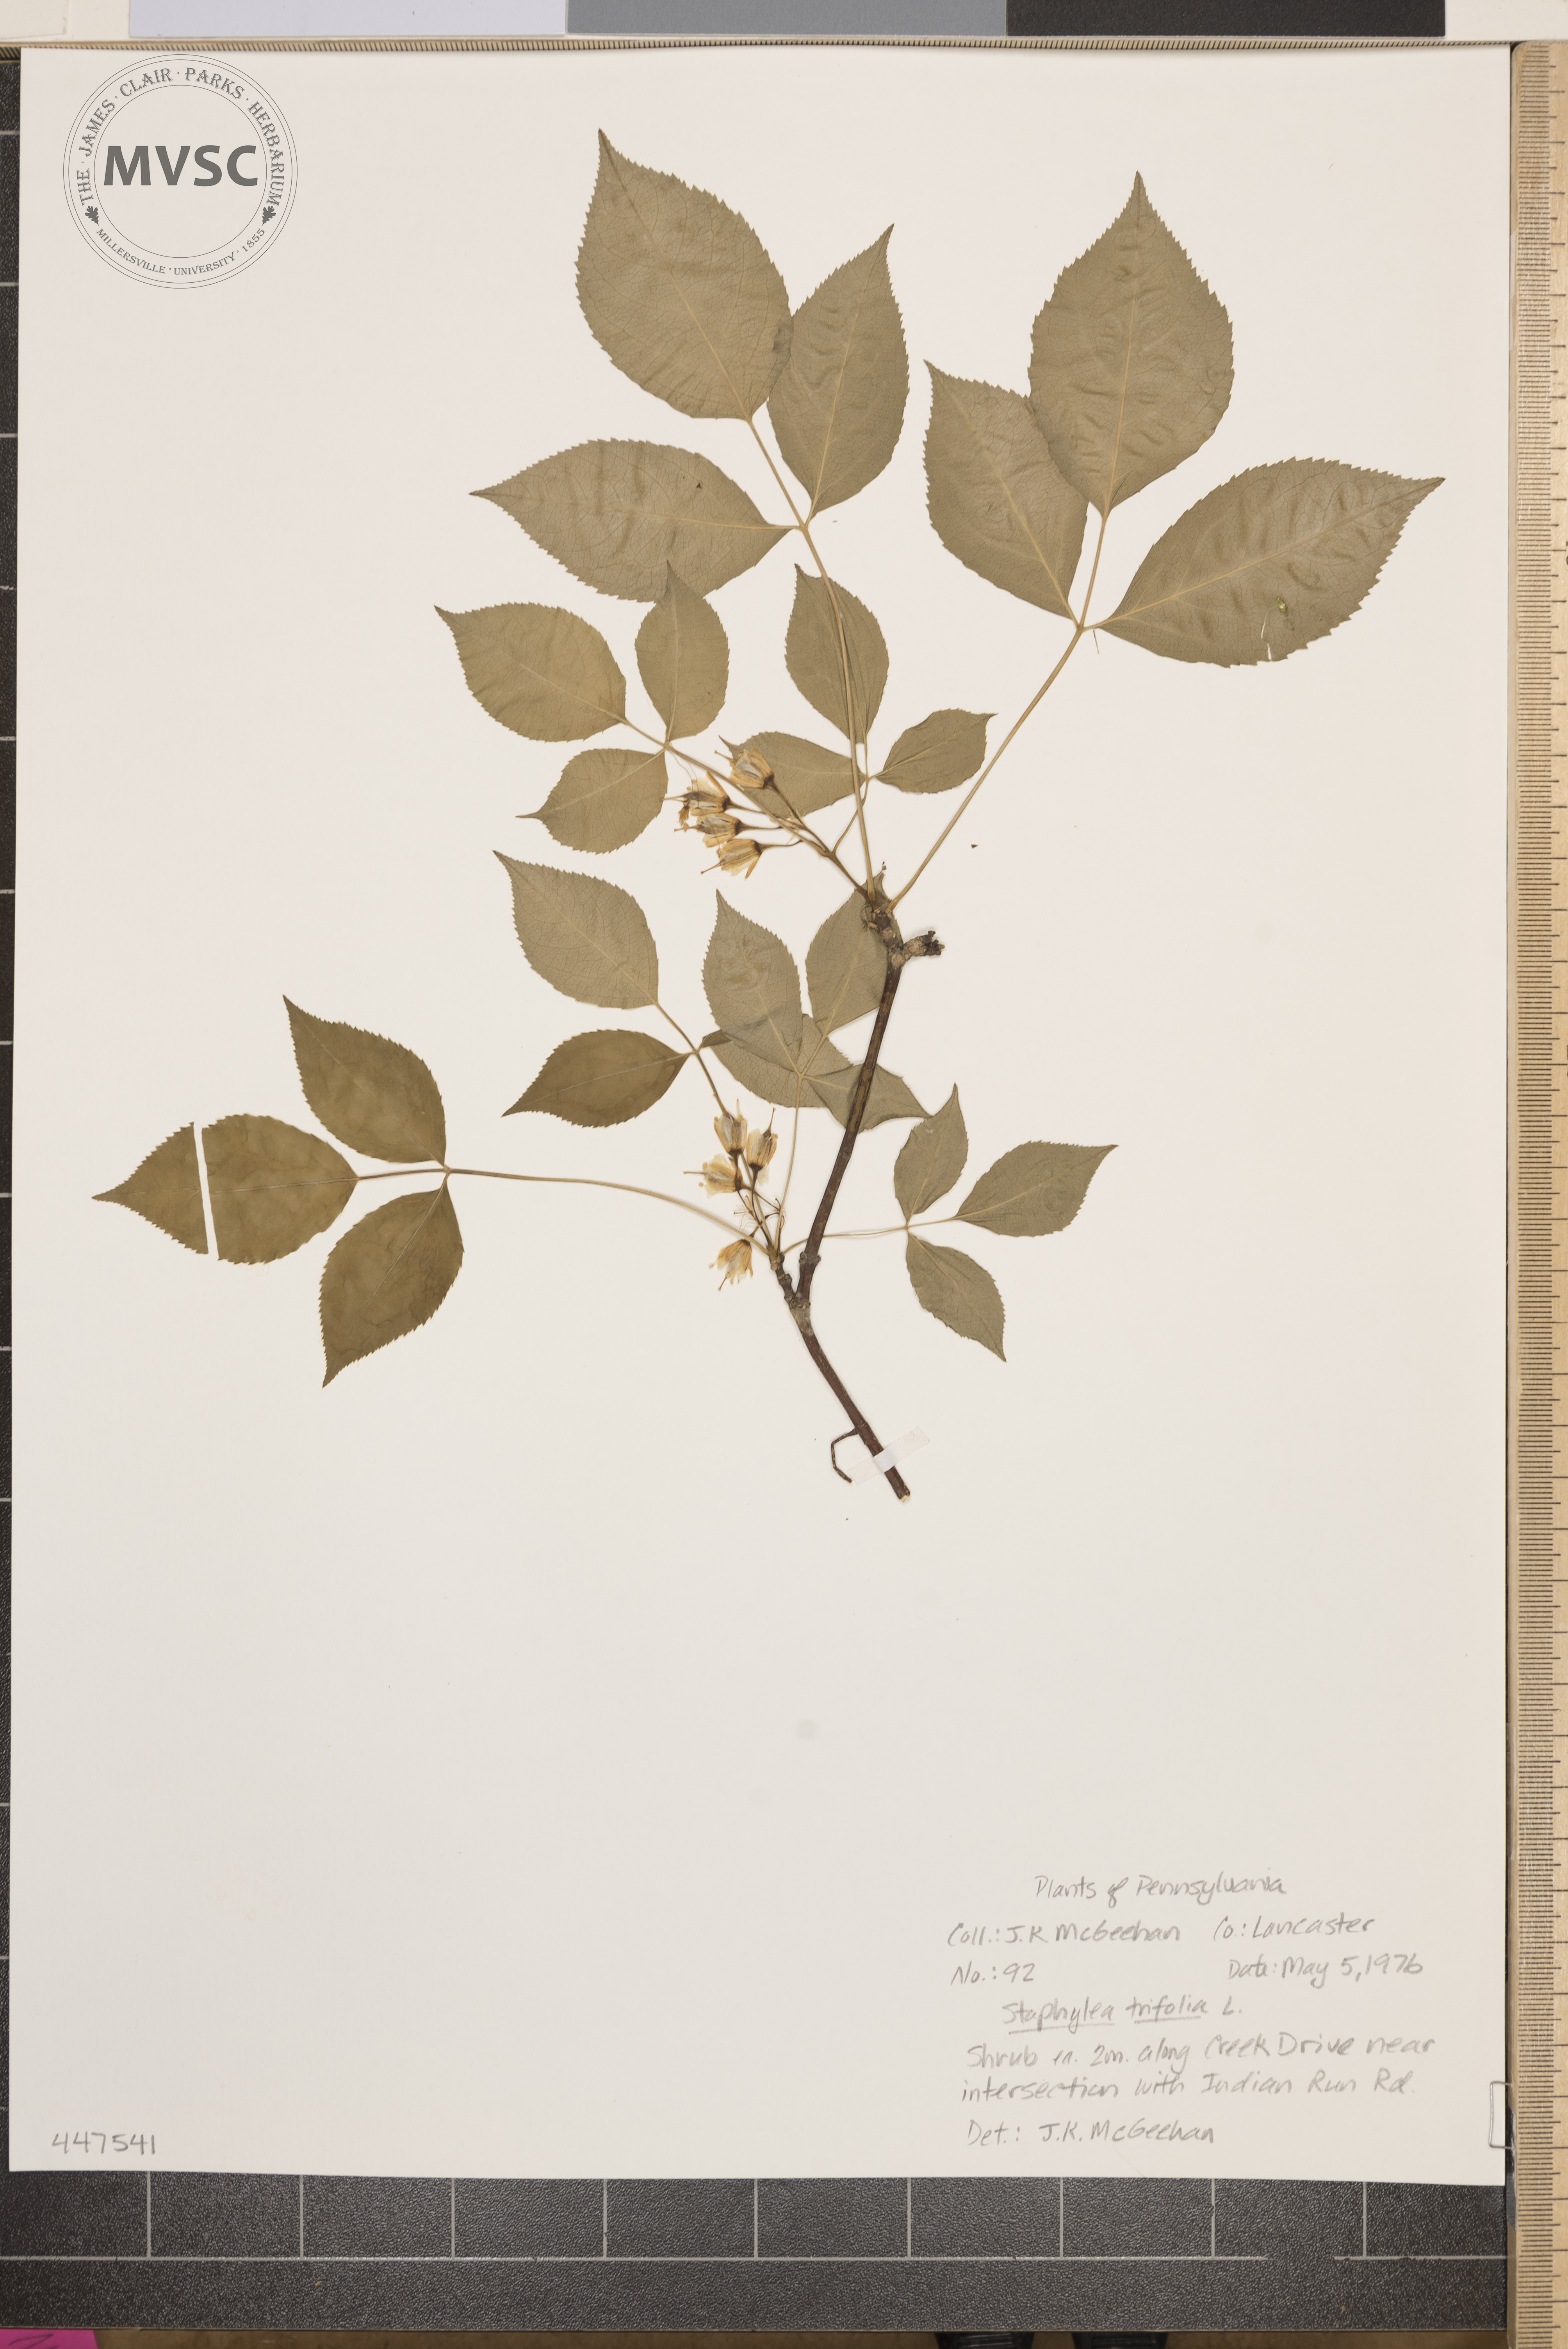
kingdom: Plantae
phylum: Tracheophyta
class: Magnoliopsida
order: Crossosomatales
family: Staphyleaceae
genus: Staphylea
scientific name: Staphylea trifolia
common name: American bladdernut
